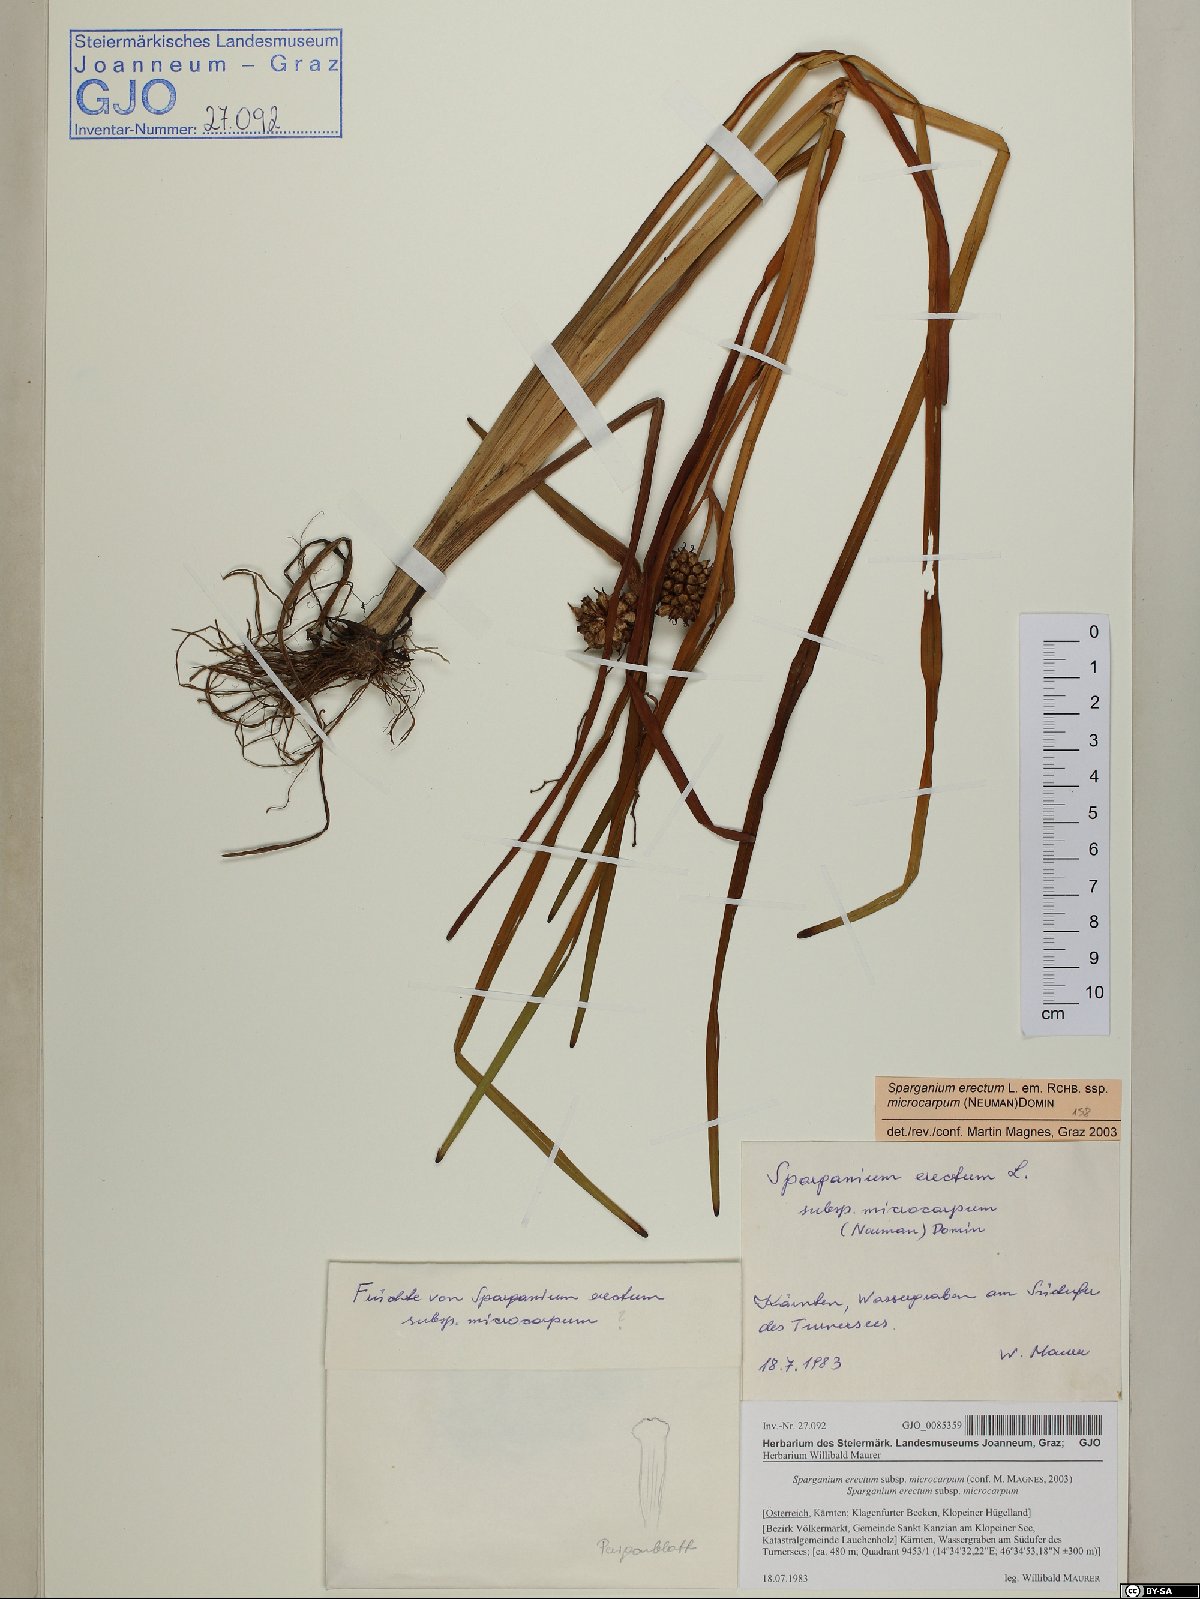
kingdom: Plantae
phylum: Tracheophyta
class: Liliopsida
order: Poales
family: Typhaceae
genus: Sparganium
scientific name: Sparganium erectum
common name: Branched bur-reed
